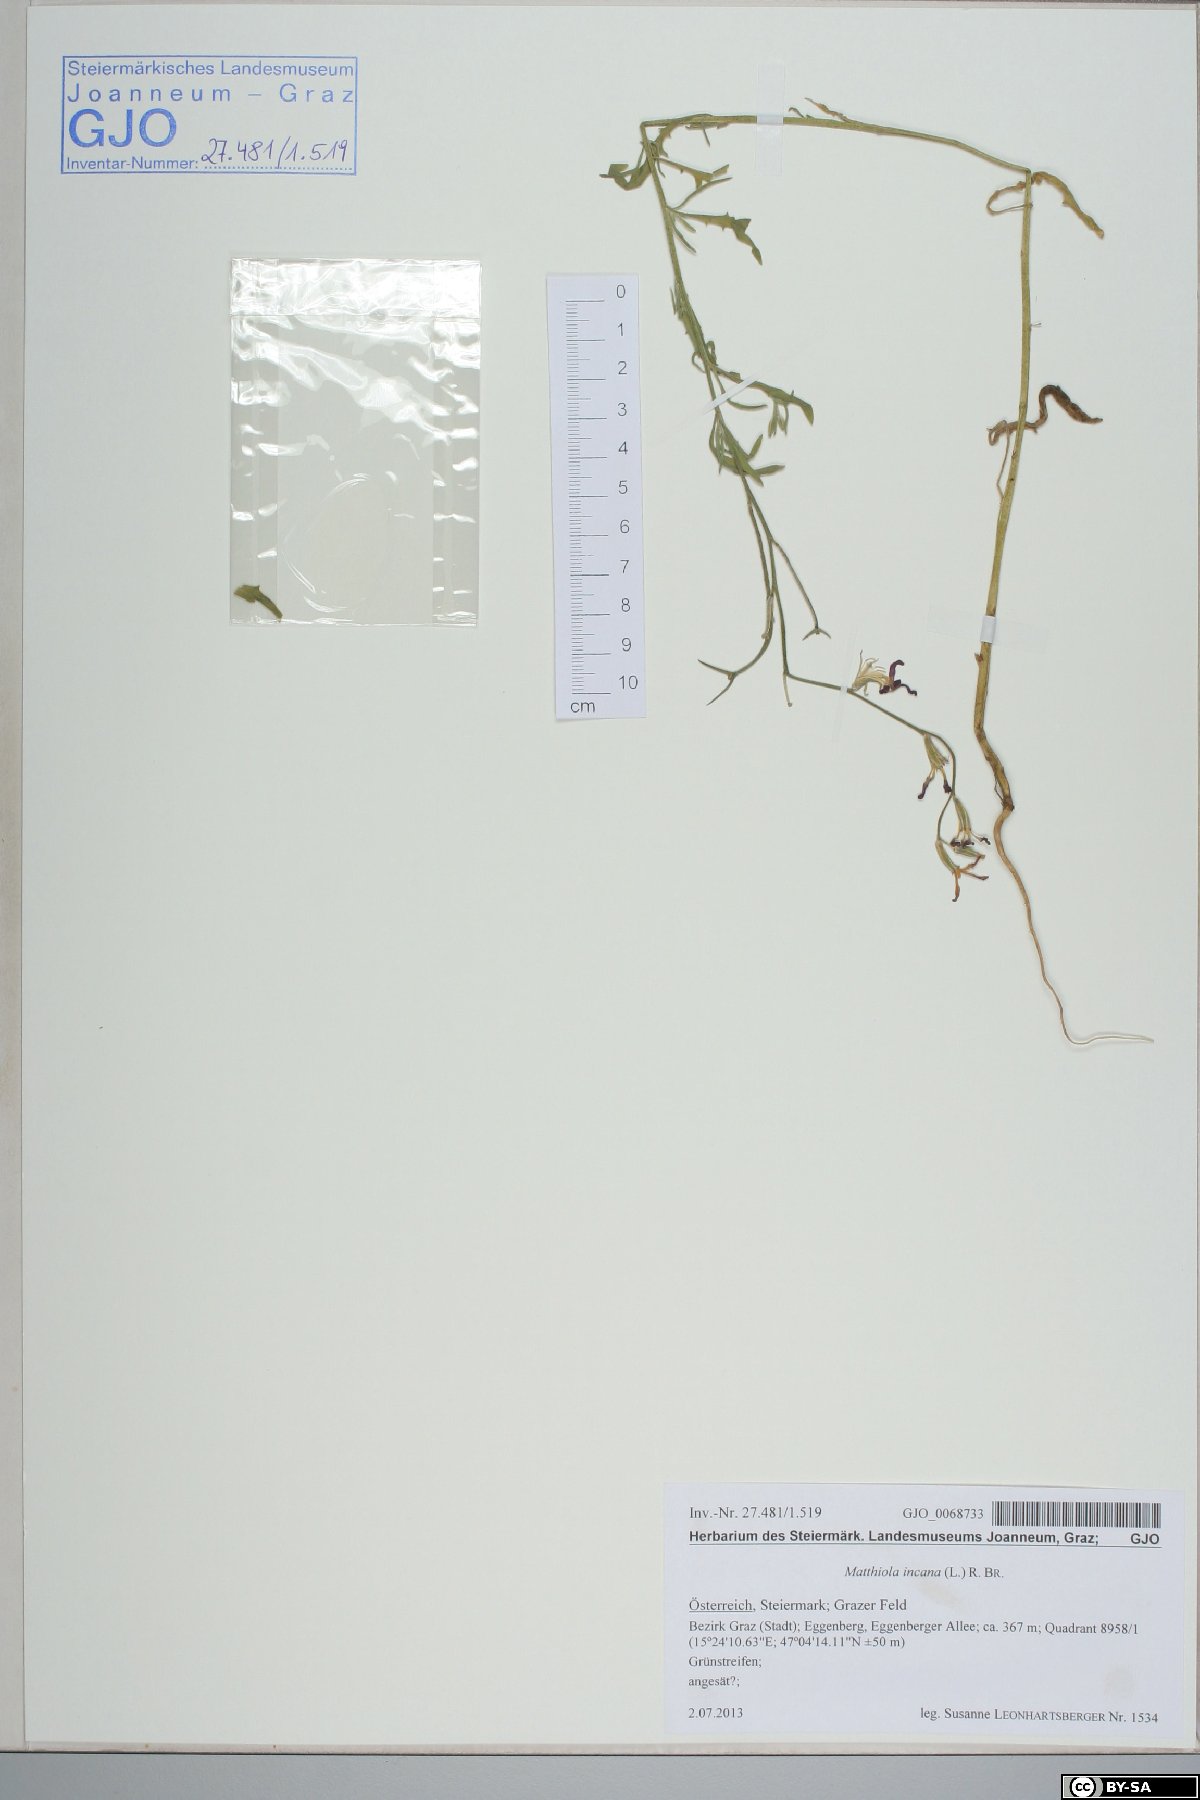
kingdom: Plantae
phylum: Tracheophyta
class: Magnoliopsida
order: Brassicales
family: Brassicaceae
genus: Matthiola
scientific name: Matthiola incana
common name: Hoary stock
